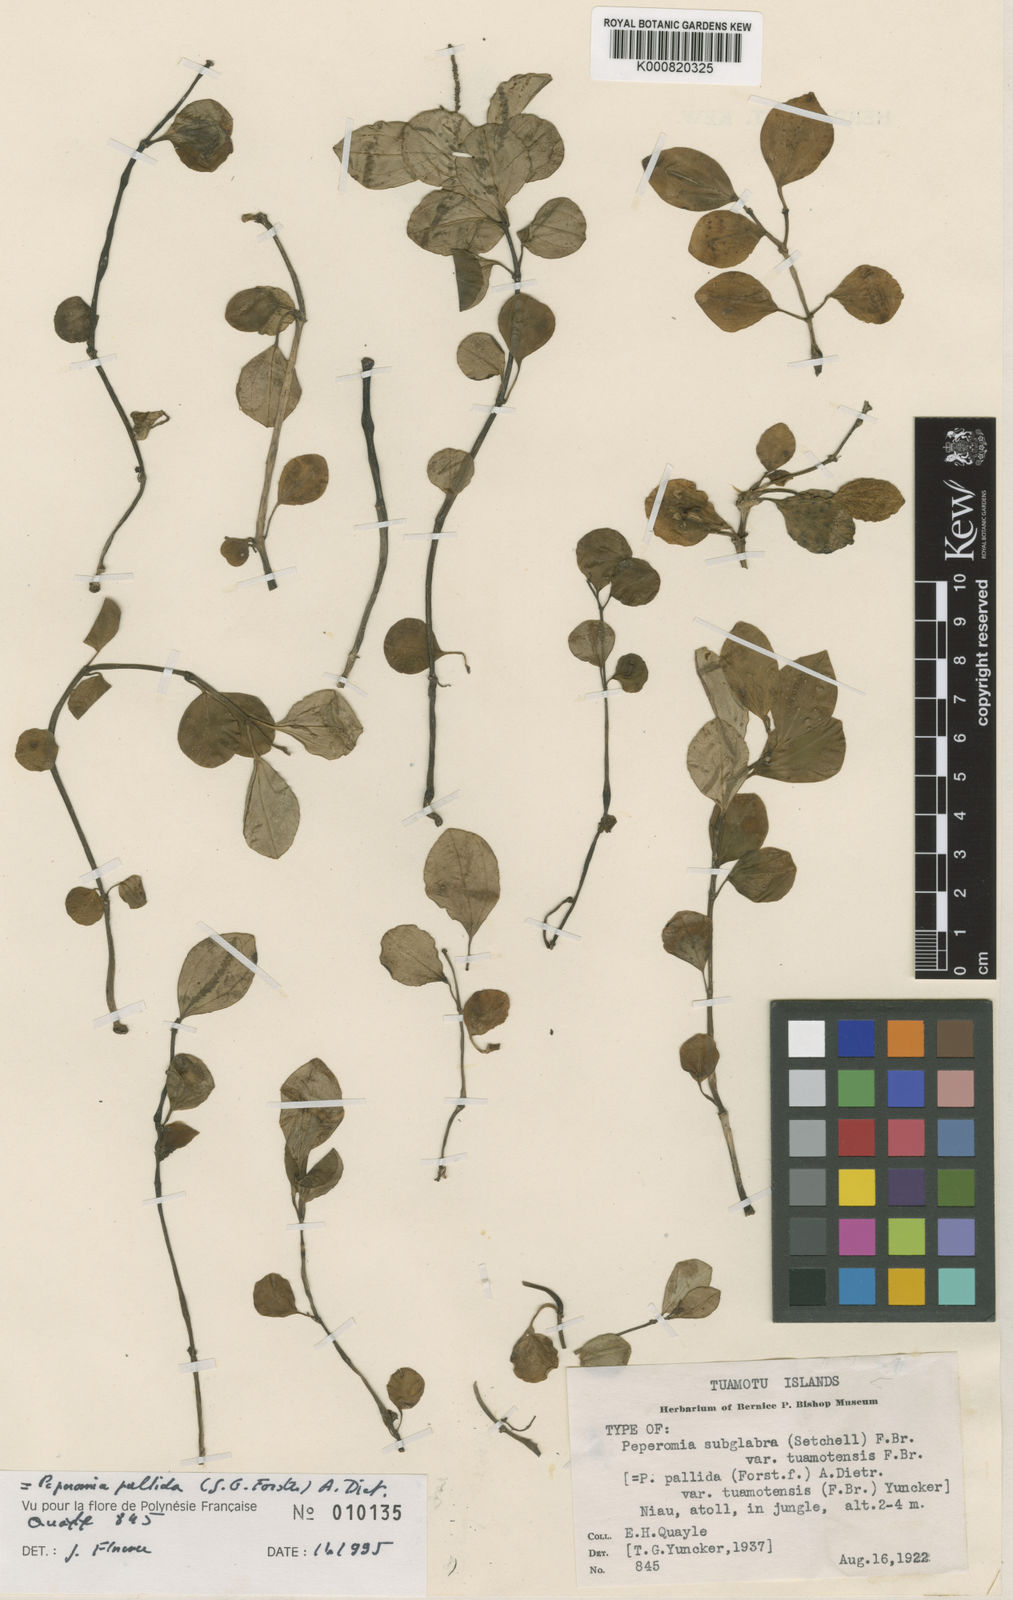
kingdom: Plantae
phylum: Tracheophyta
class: Magnoliopsida
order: Piperales
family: Piperaceae
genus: Peperomia
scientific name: Peperomia
